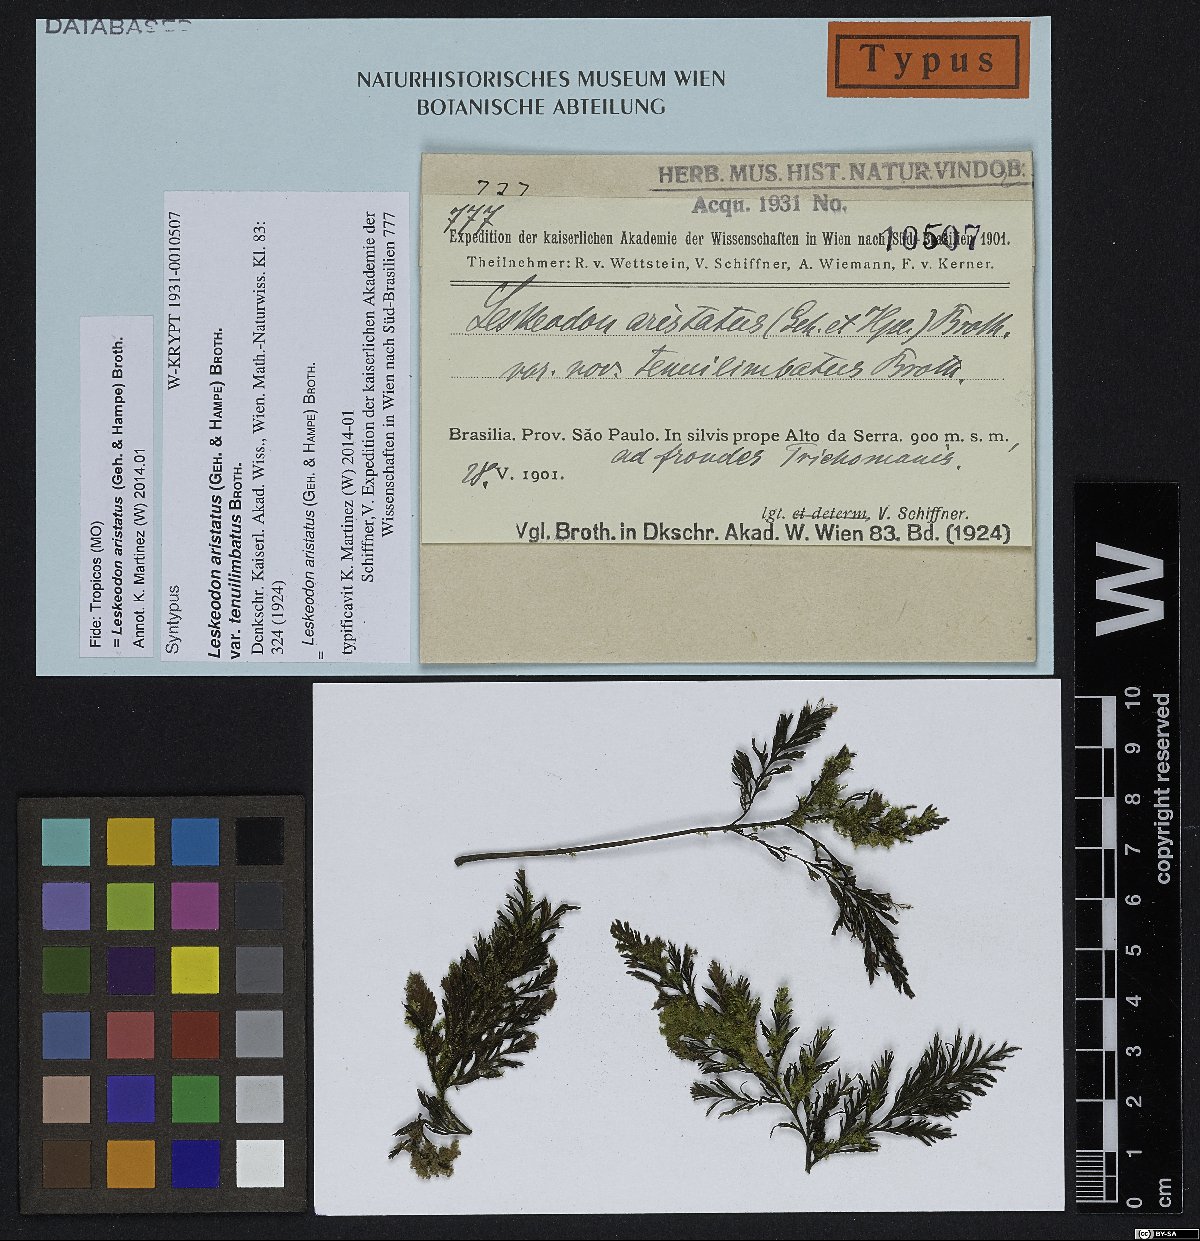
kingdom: Plantae
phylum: Bryophyta
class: Bryopsida
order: Hookeriales
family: Daltoniaceae
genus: Leskeodon
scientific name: Leskeodon aristatus
